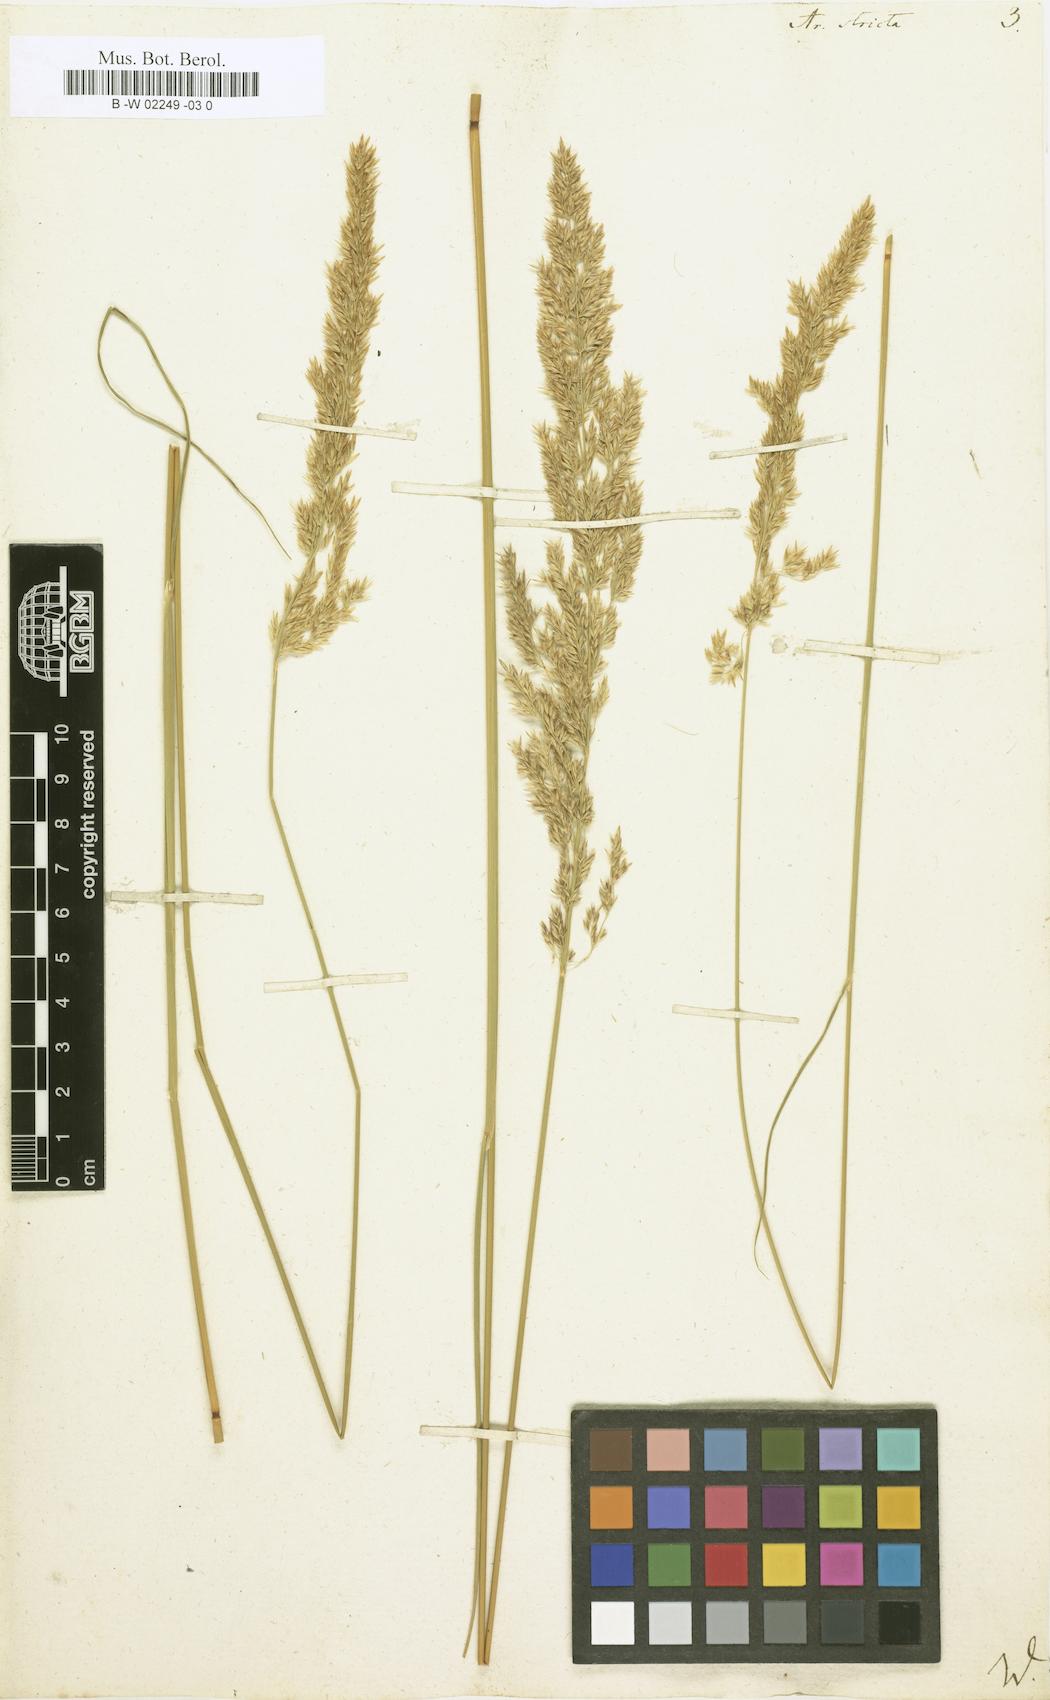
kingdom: Plantae
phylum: Tracheophyta
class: Liliopsida
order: Poales
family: Poaceae
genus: Arundo
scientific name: Arundo stricta
